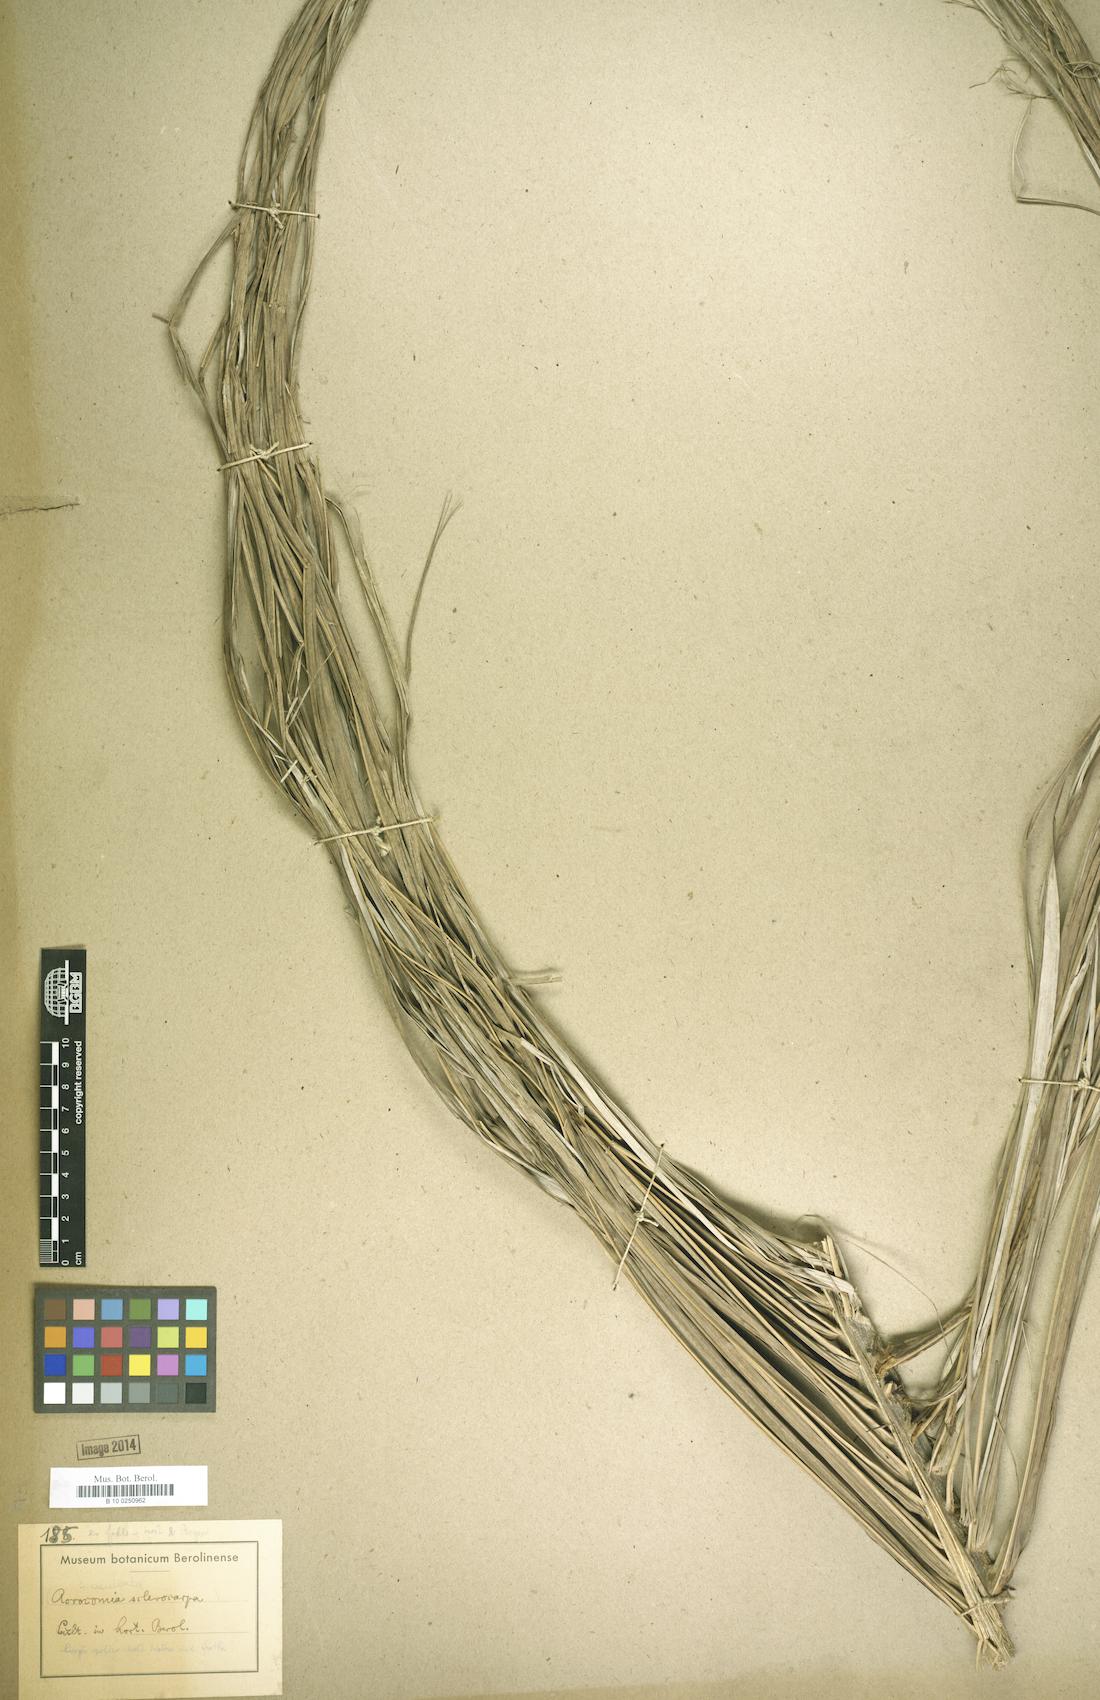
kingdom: Plantae
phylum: Tracheophyta
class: Liliopsida
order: Arecales
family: Arecaceae
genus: Acrocomia
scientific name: Acrocomia aculeata
